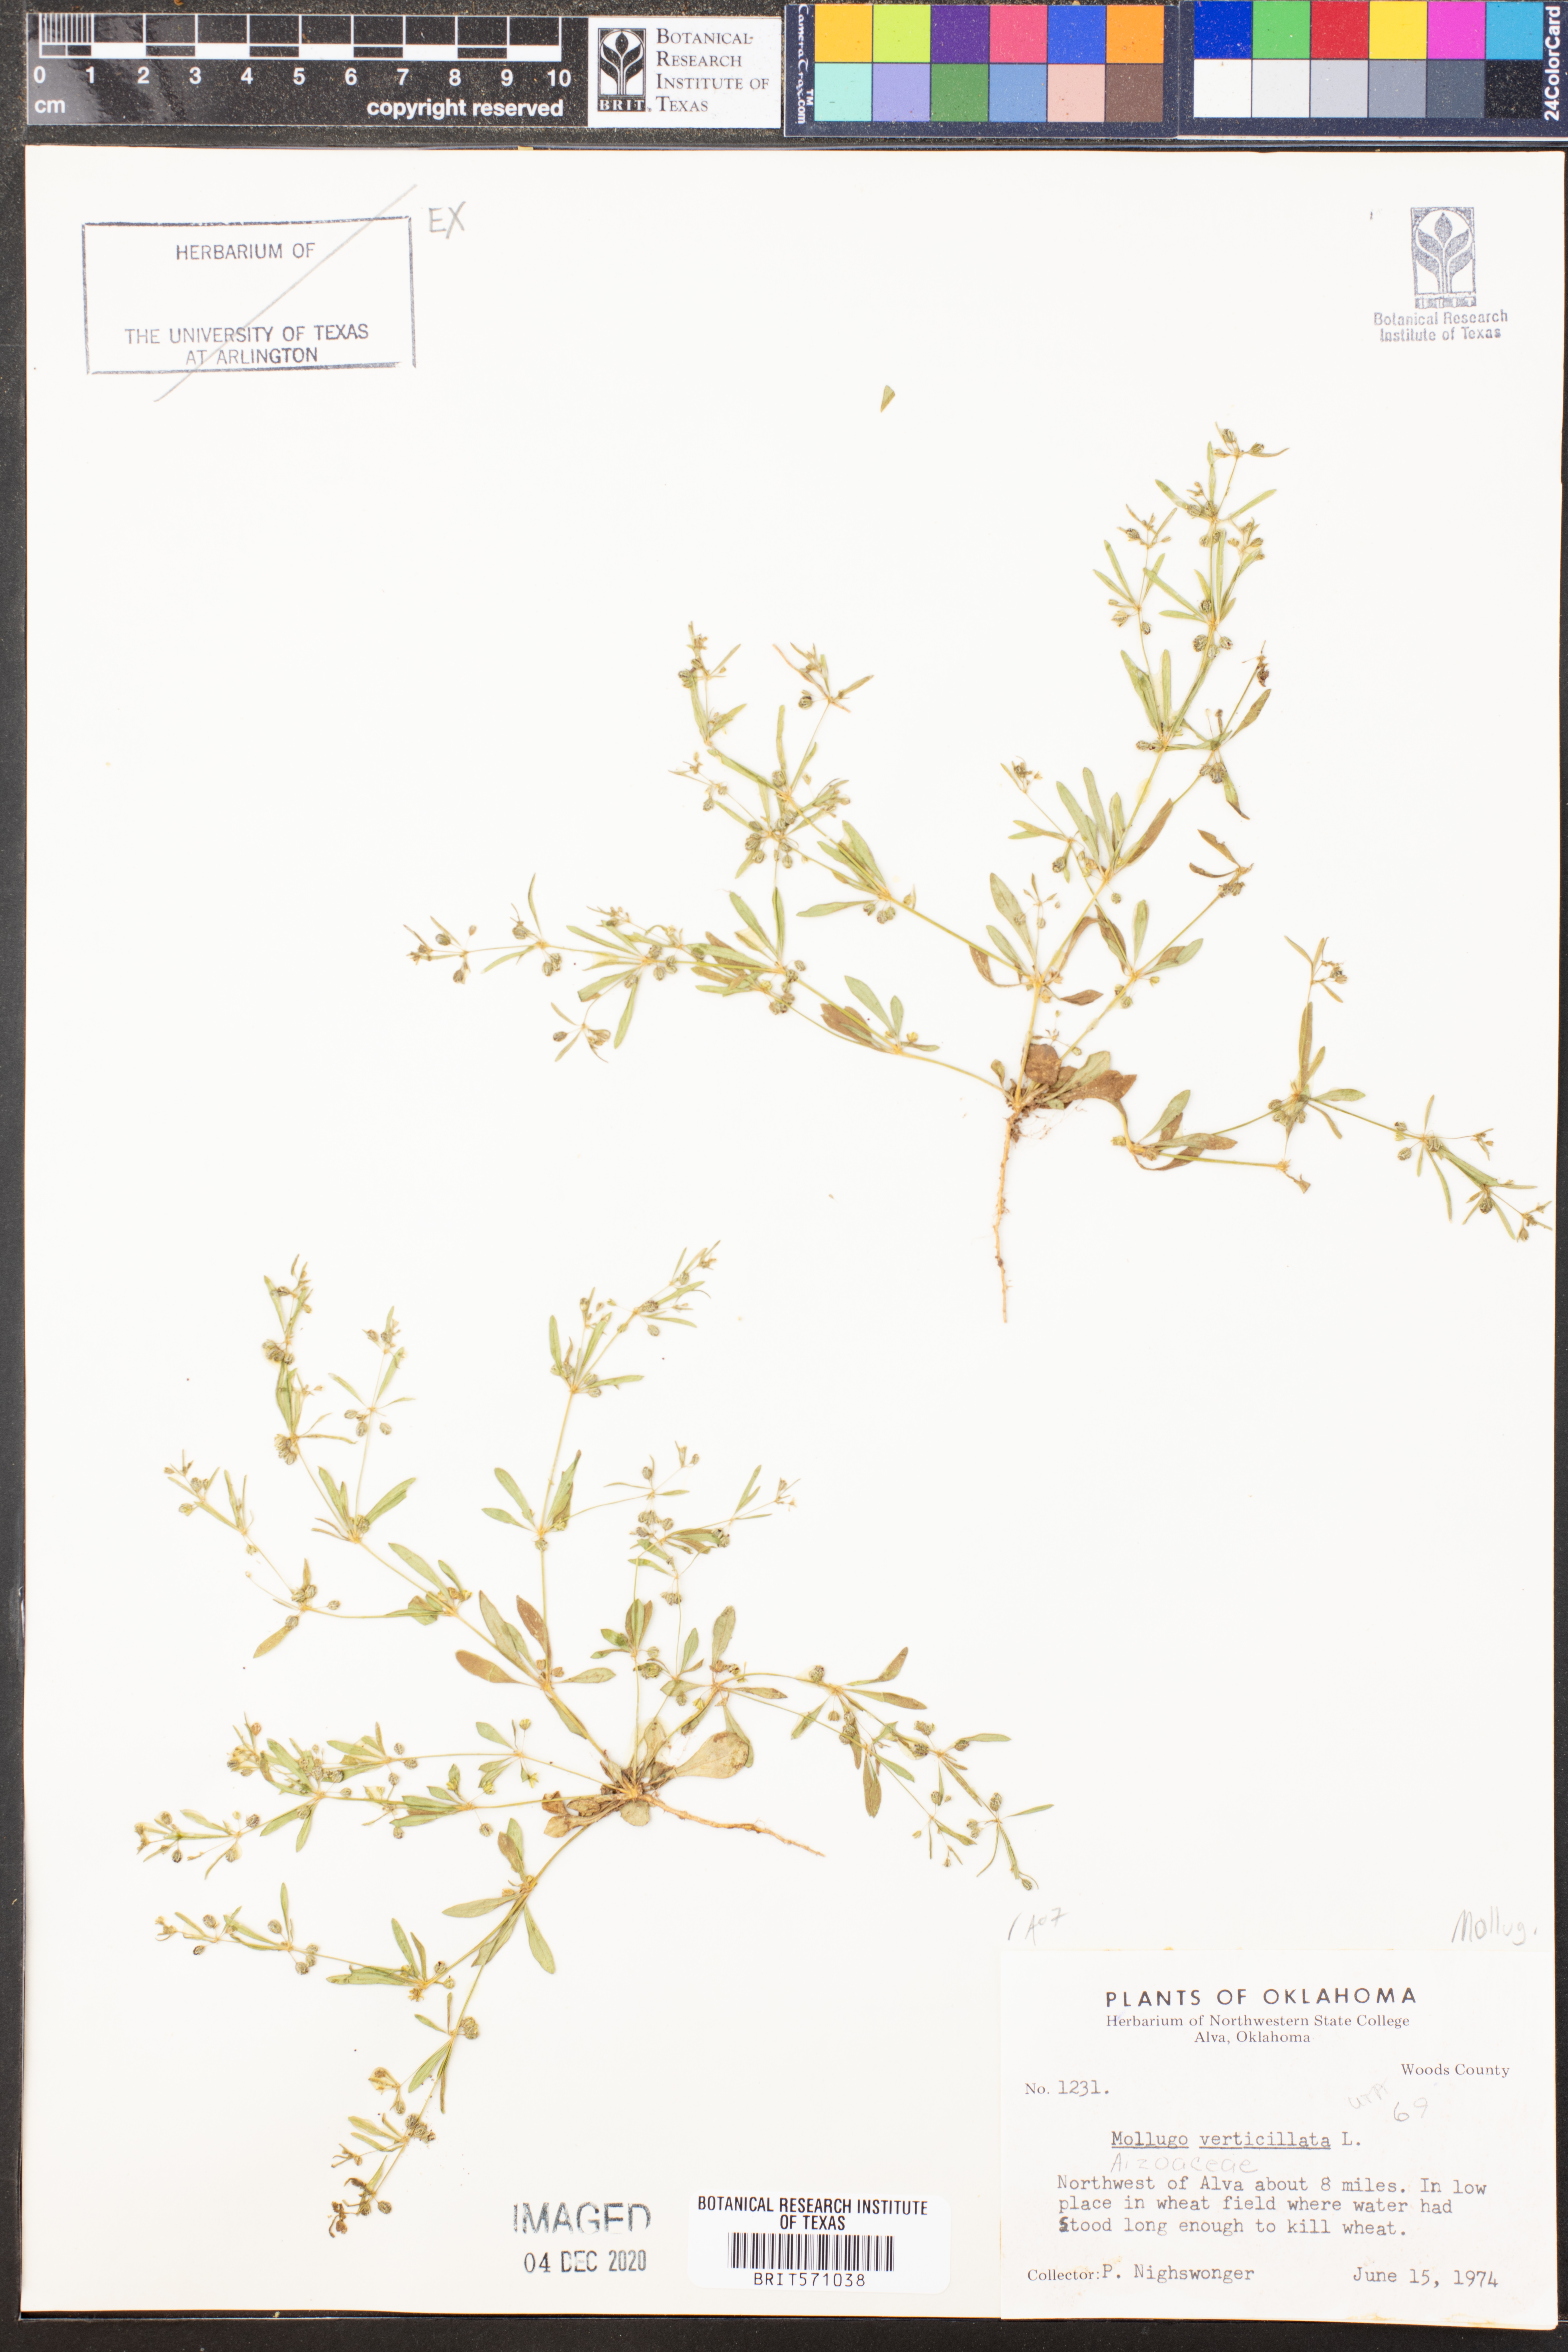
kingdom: Plantae
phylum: Tracheophyta
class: Magnoliopsida
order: Caryophyllales
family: Molluginaceae
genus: Mollugo
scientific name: Mollugo verticillata
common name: Green carpetweed
